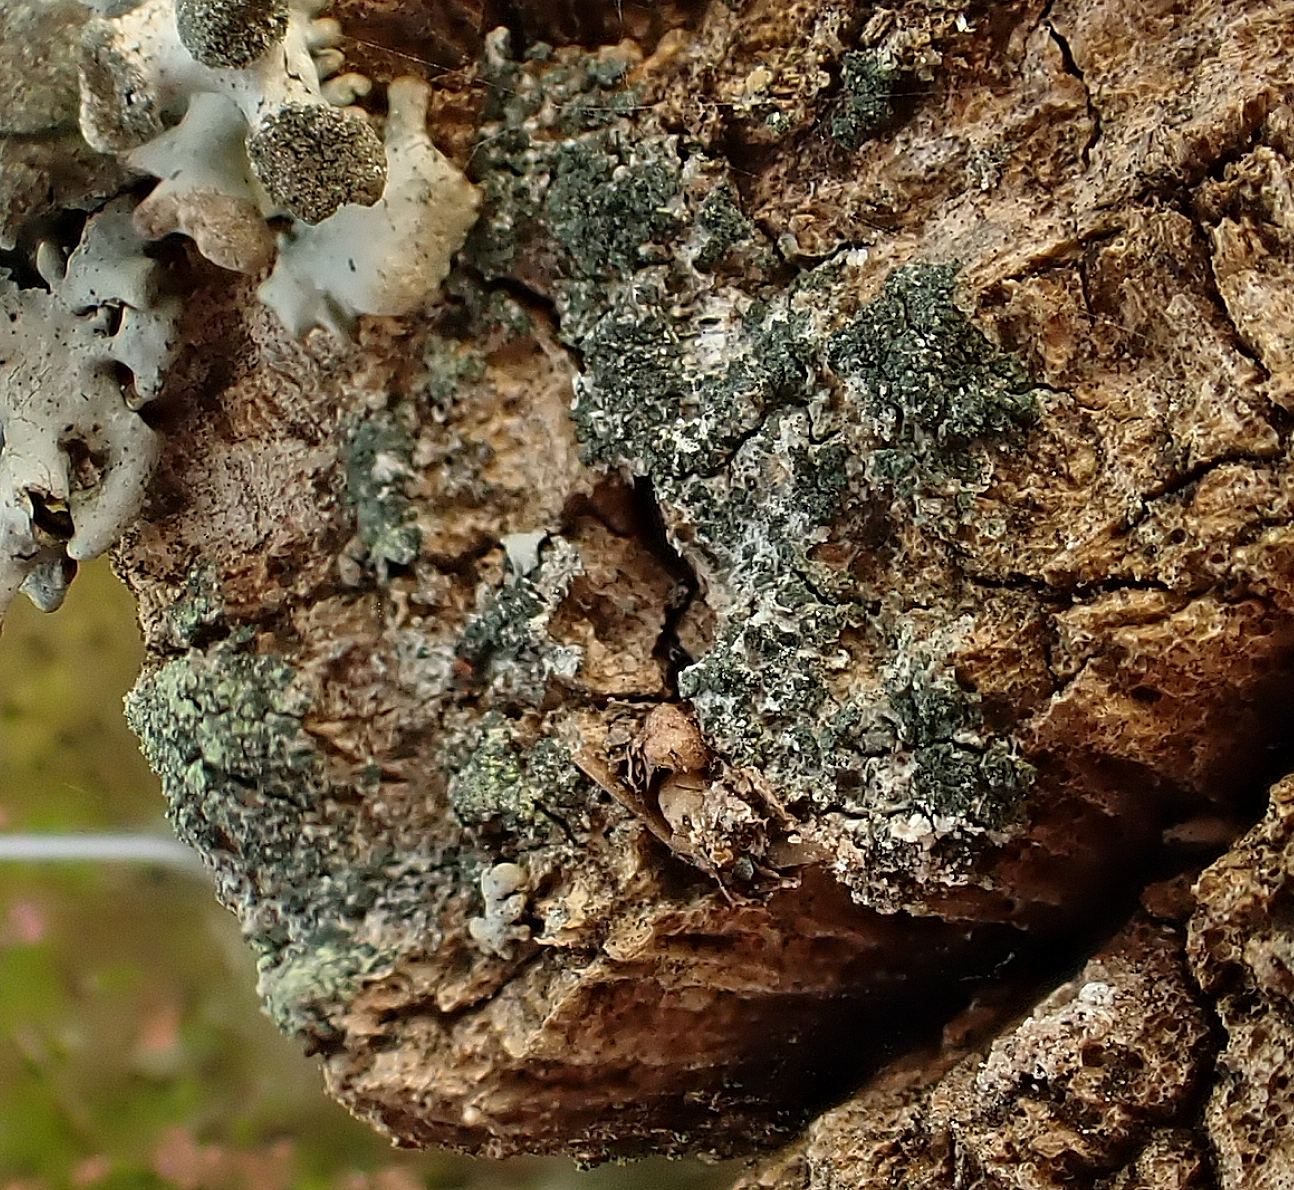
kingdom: Fungi
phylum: Ascomycota
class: Lecanoromycetes
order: Caliciales
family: Caliciaceae
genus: Buellia
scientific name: Buellia griseovirens
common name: grågrøn sortskivelav
